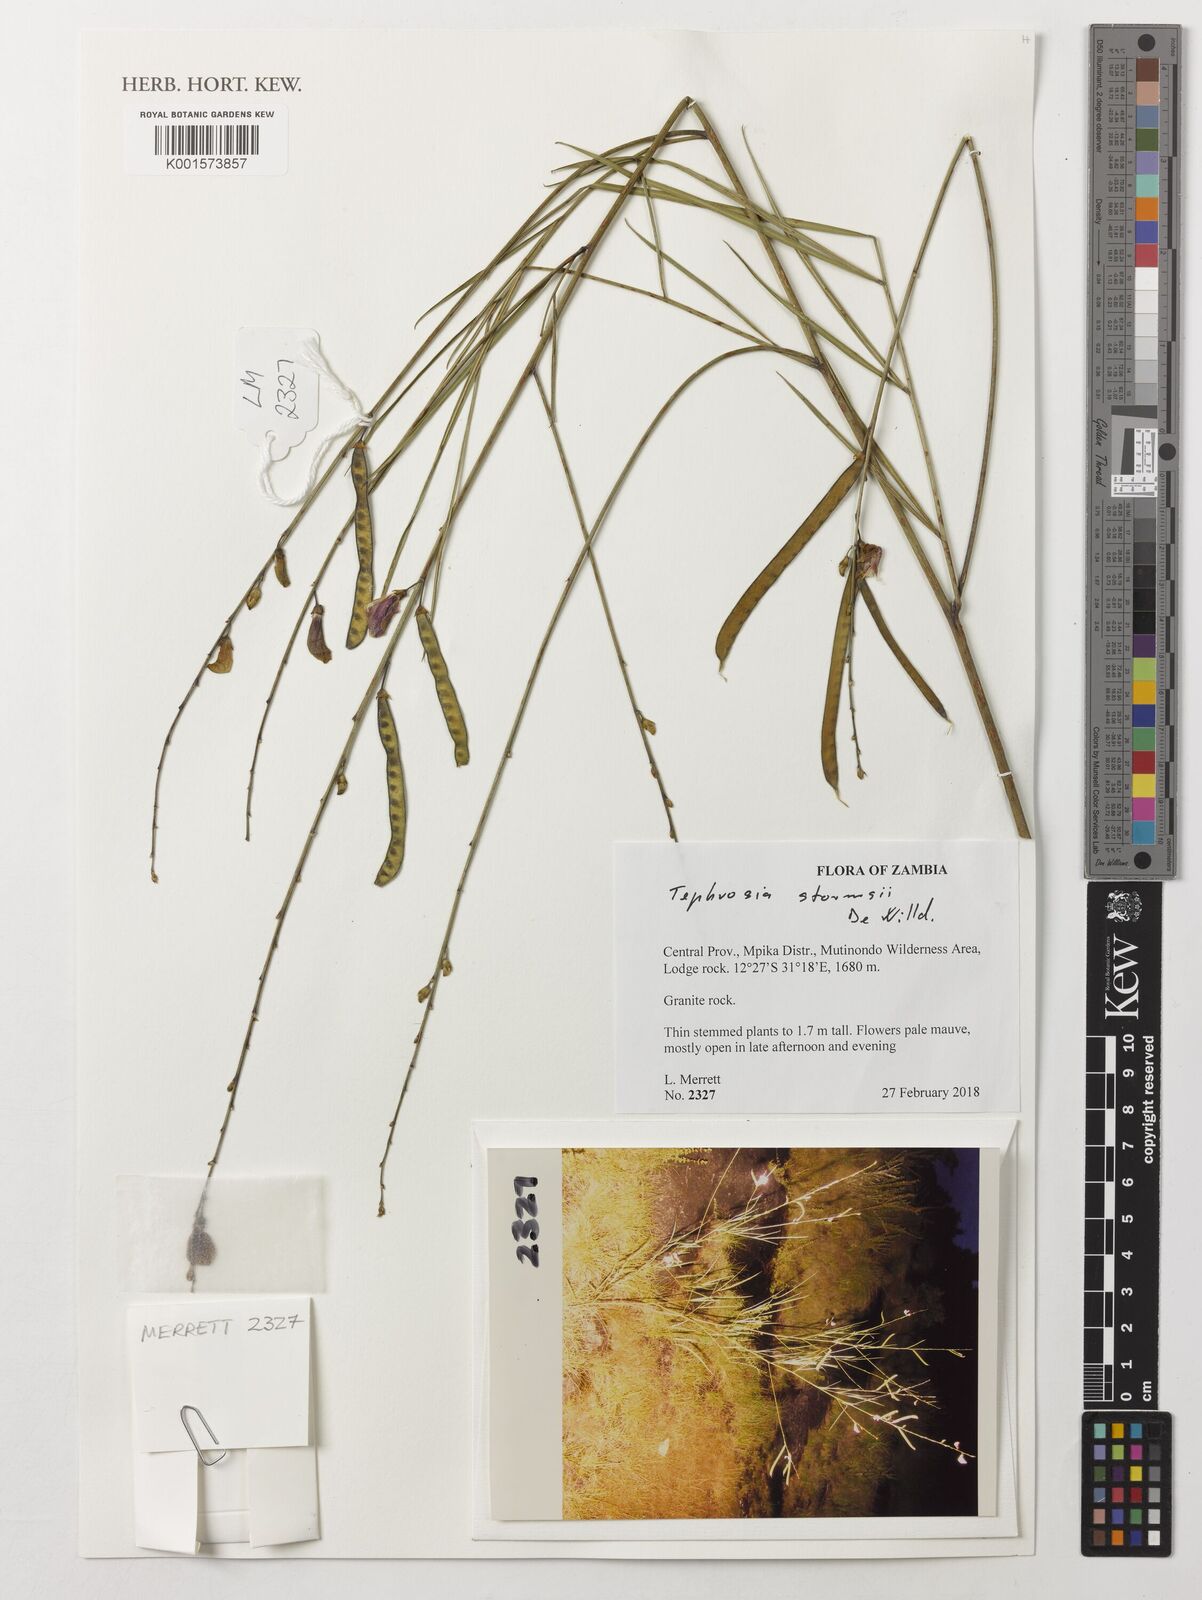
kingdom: Plantae
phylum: Tracheophyta
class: Magnoliopsida
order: Fabales
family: Fabaceae
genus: Tephrosia
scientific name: Tephrosia stormsii
